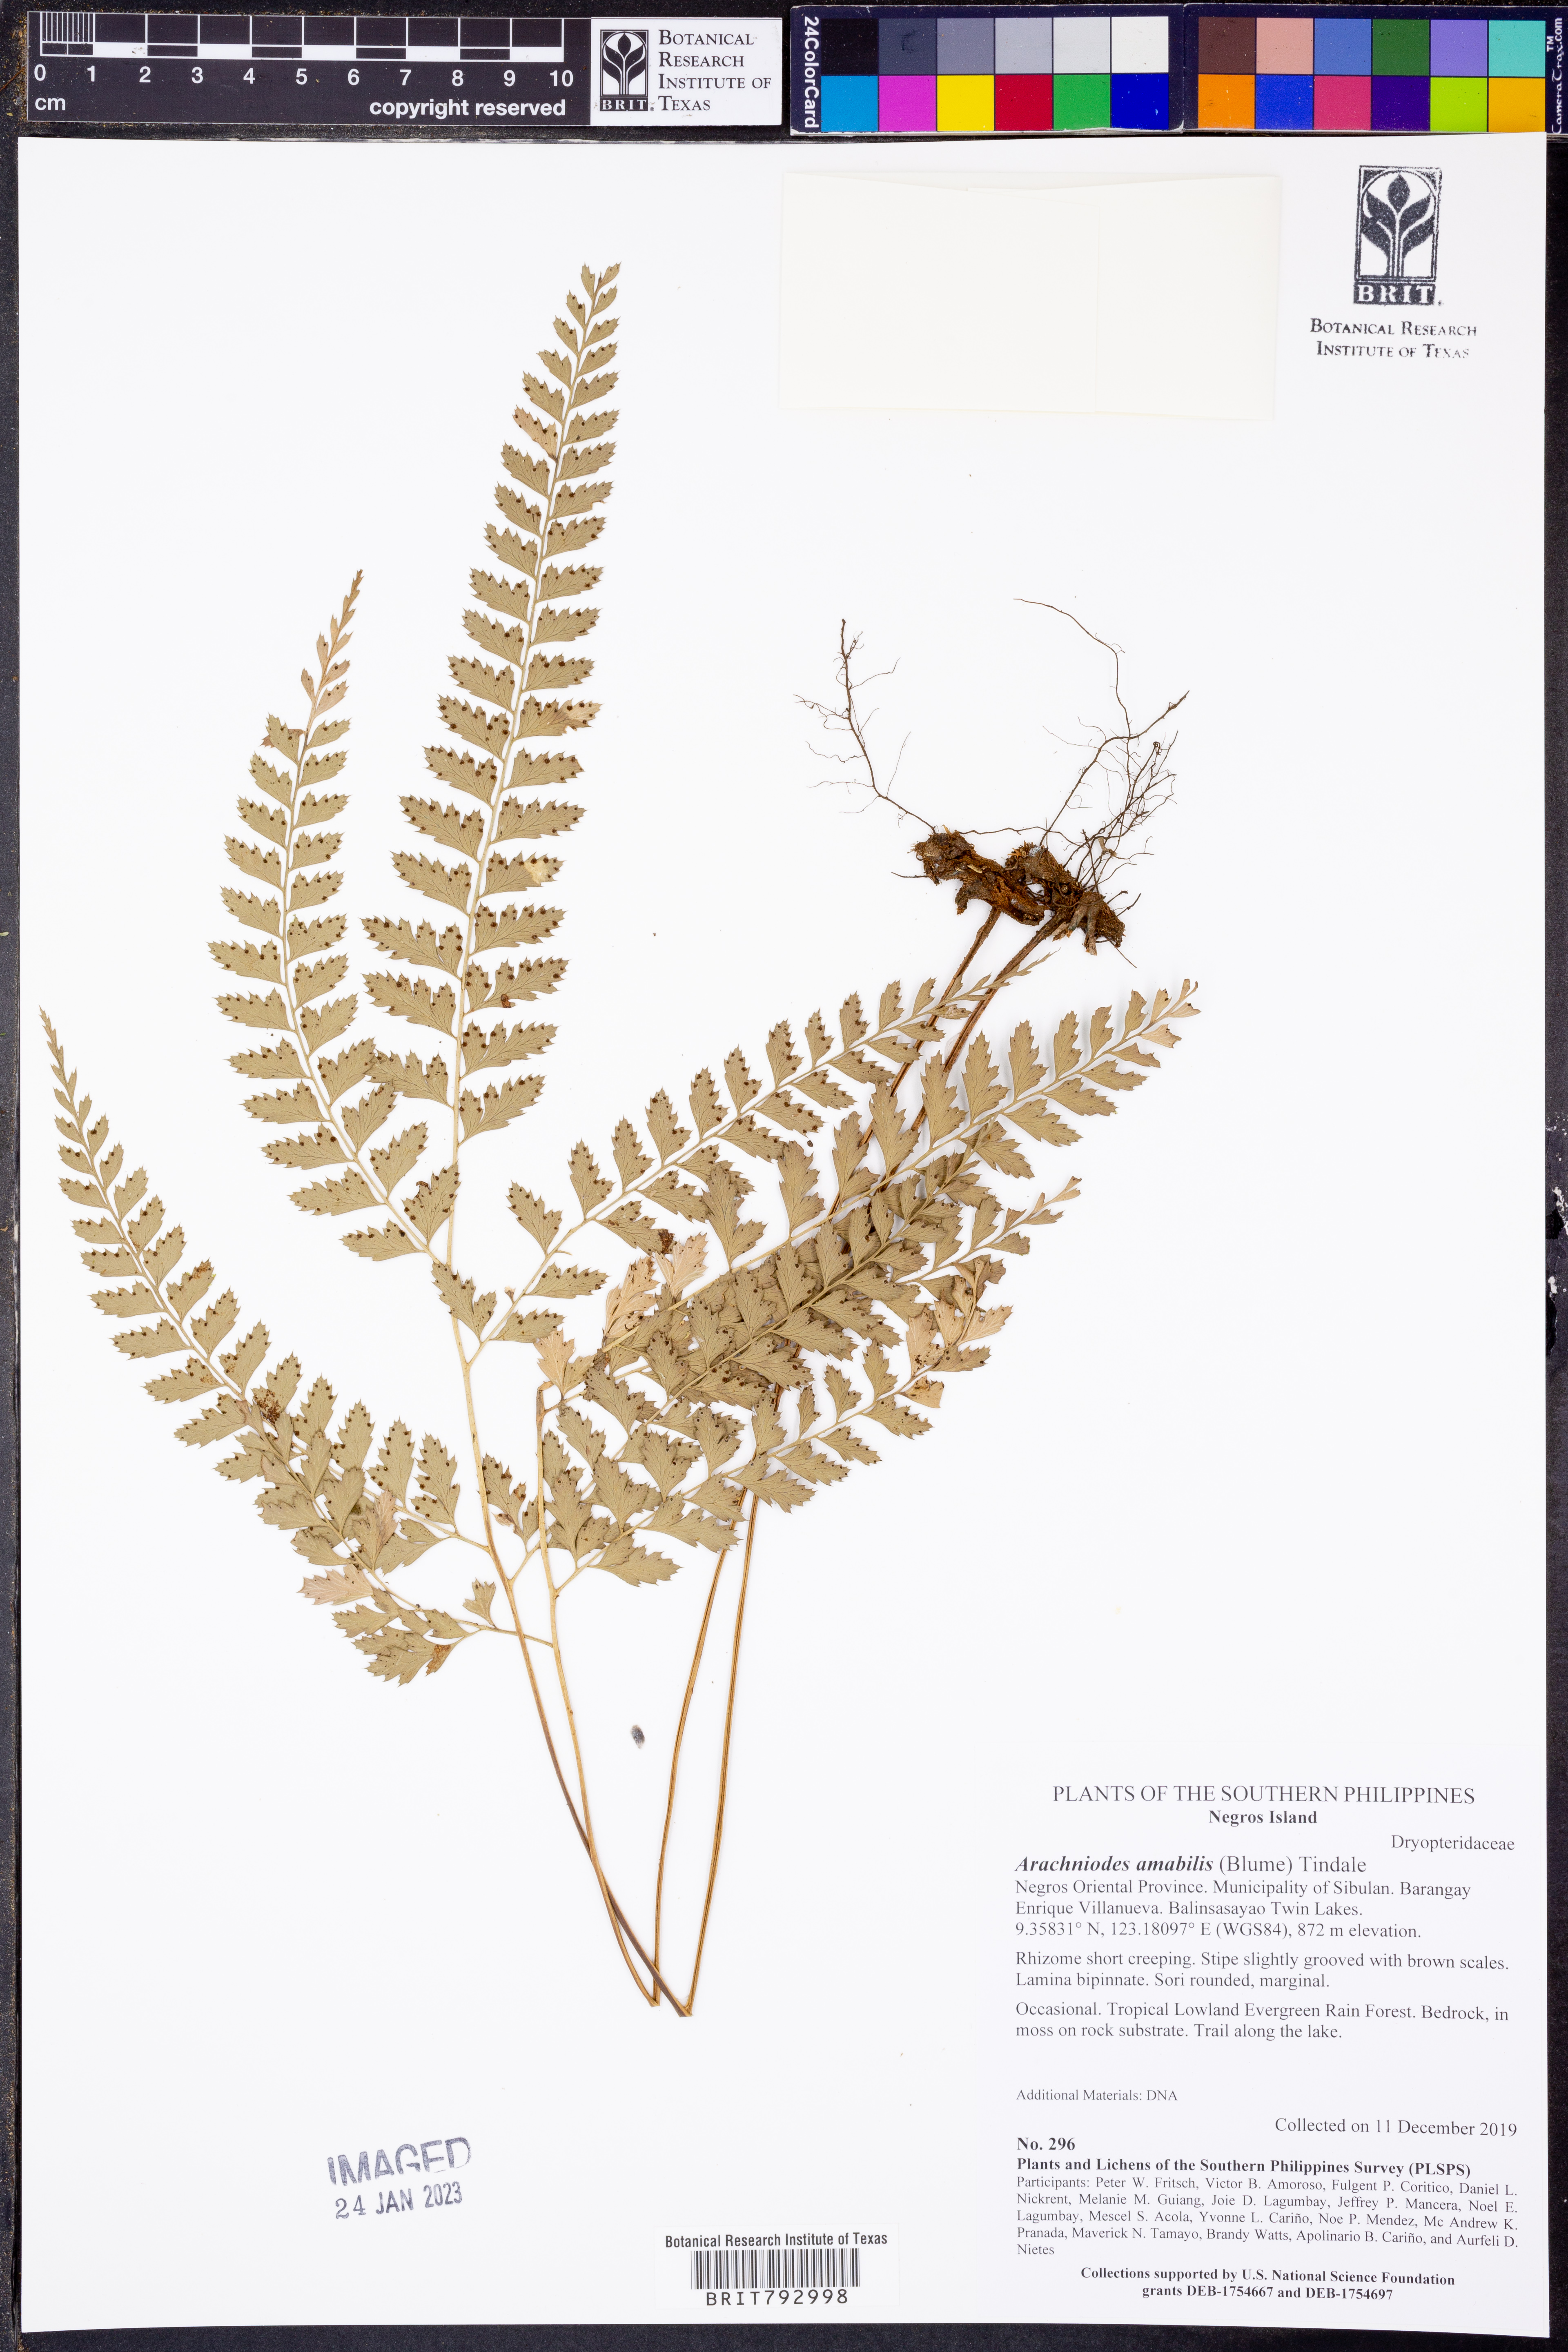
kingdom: Plantae
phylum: Tracheophyta
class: Polypodiopsida
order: Polypodiales
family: Dryopteridaceae
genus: Arachniodes
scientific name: Arachniodes amabilis
